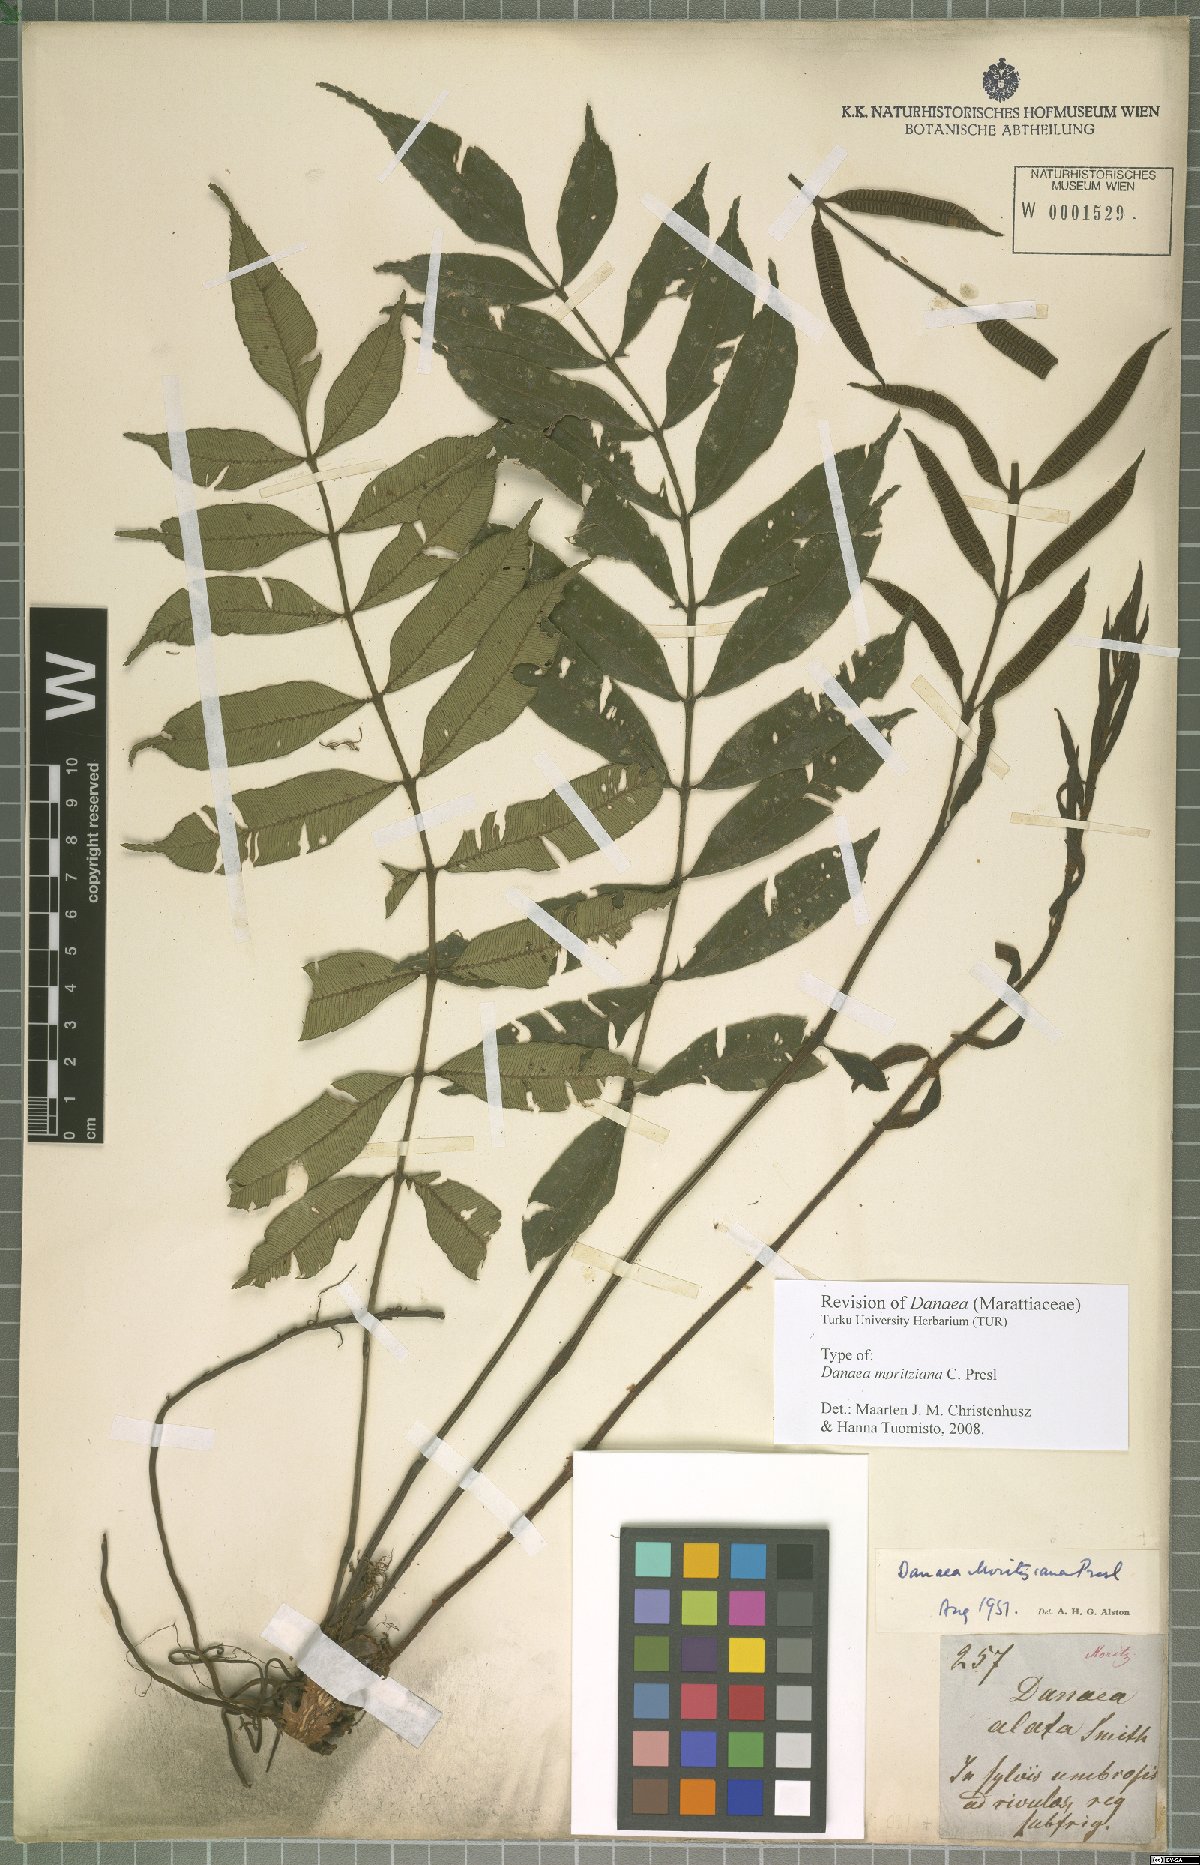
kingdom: Plantae
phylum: Tracheophyta
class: Polypodiopsida
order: Marattiales
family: Marattiaceae
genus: Danaea
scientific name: Danaea moritziana
